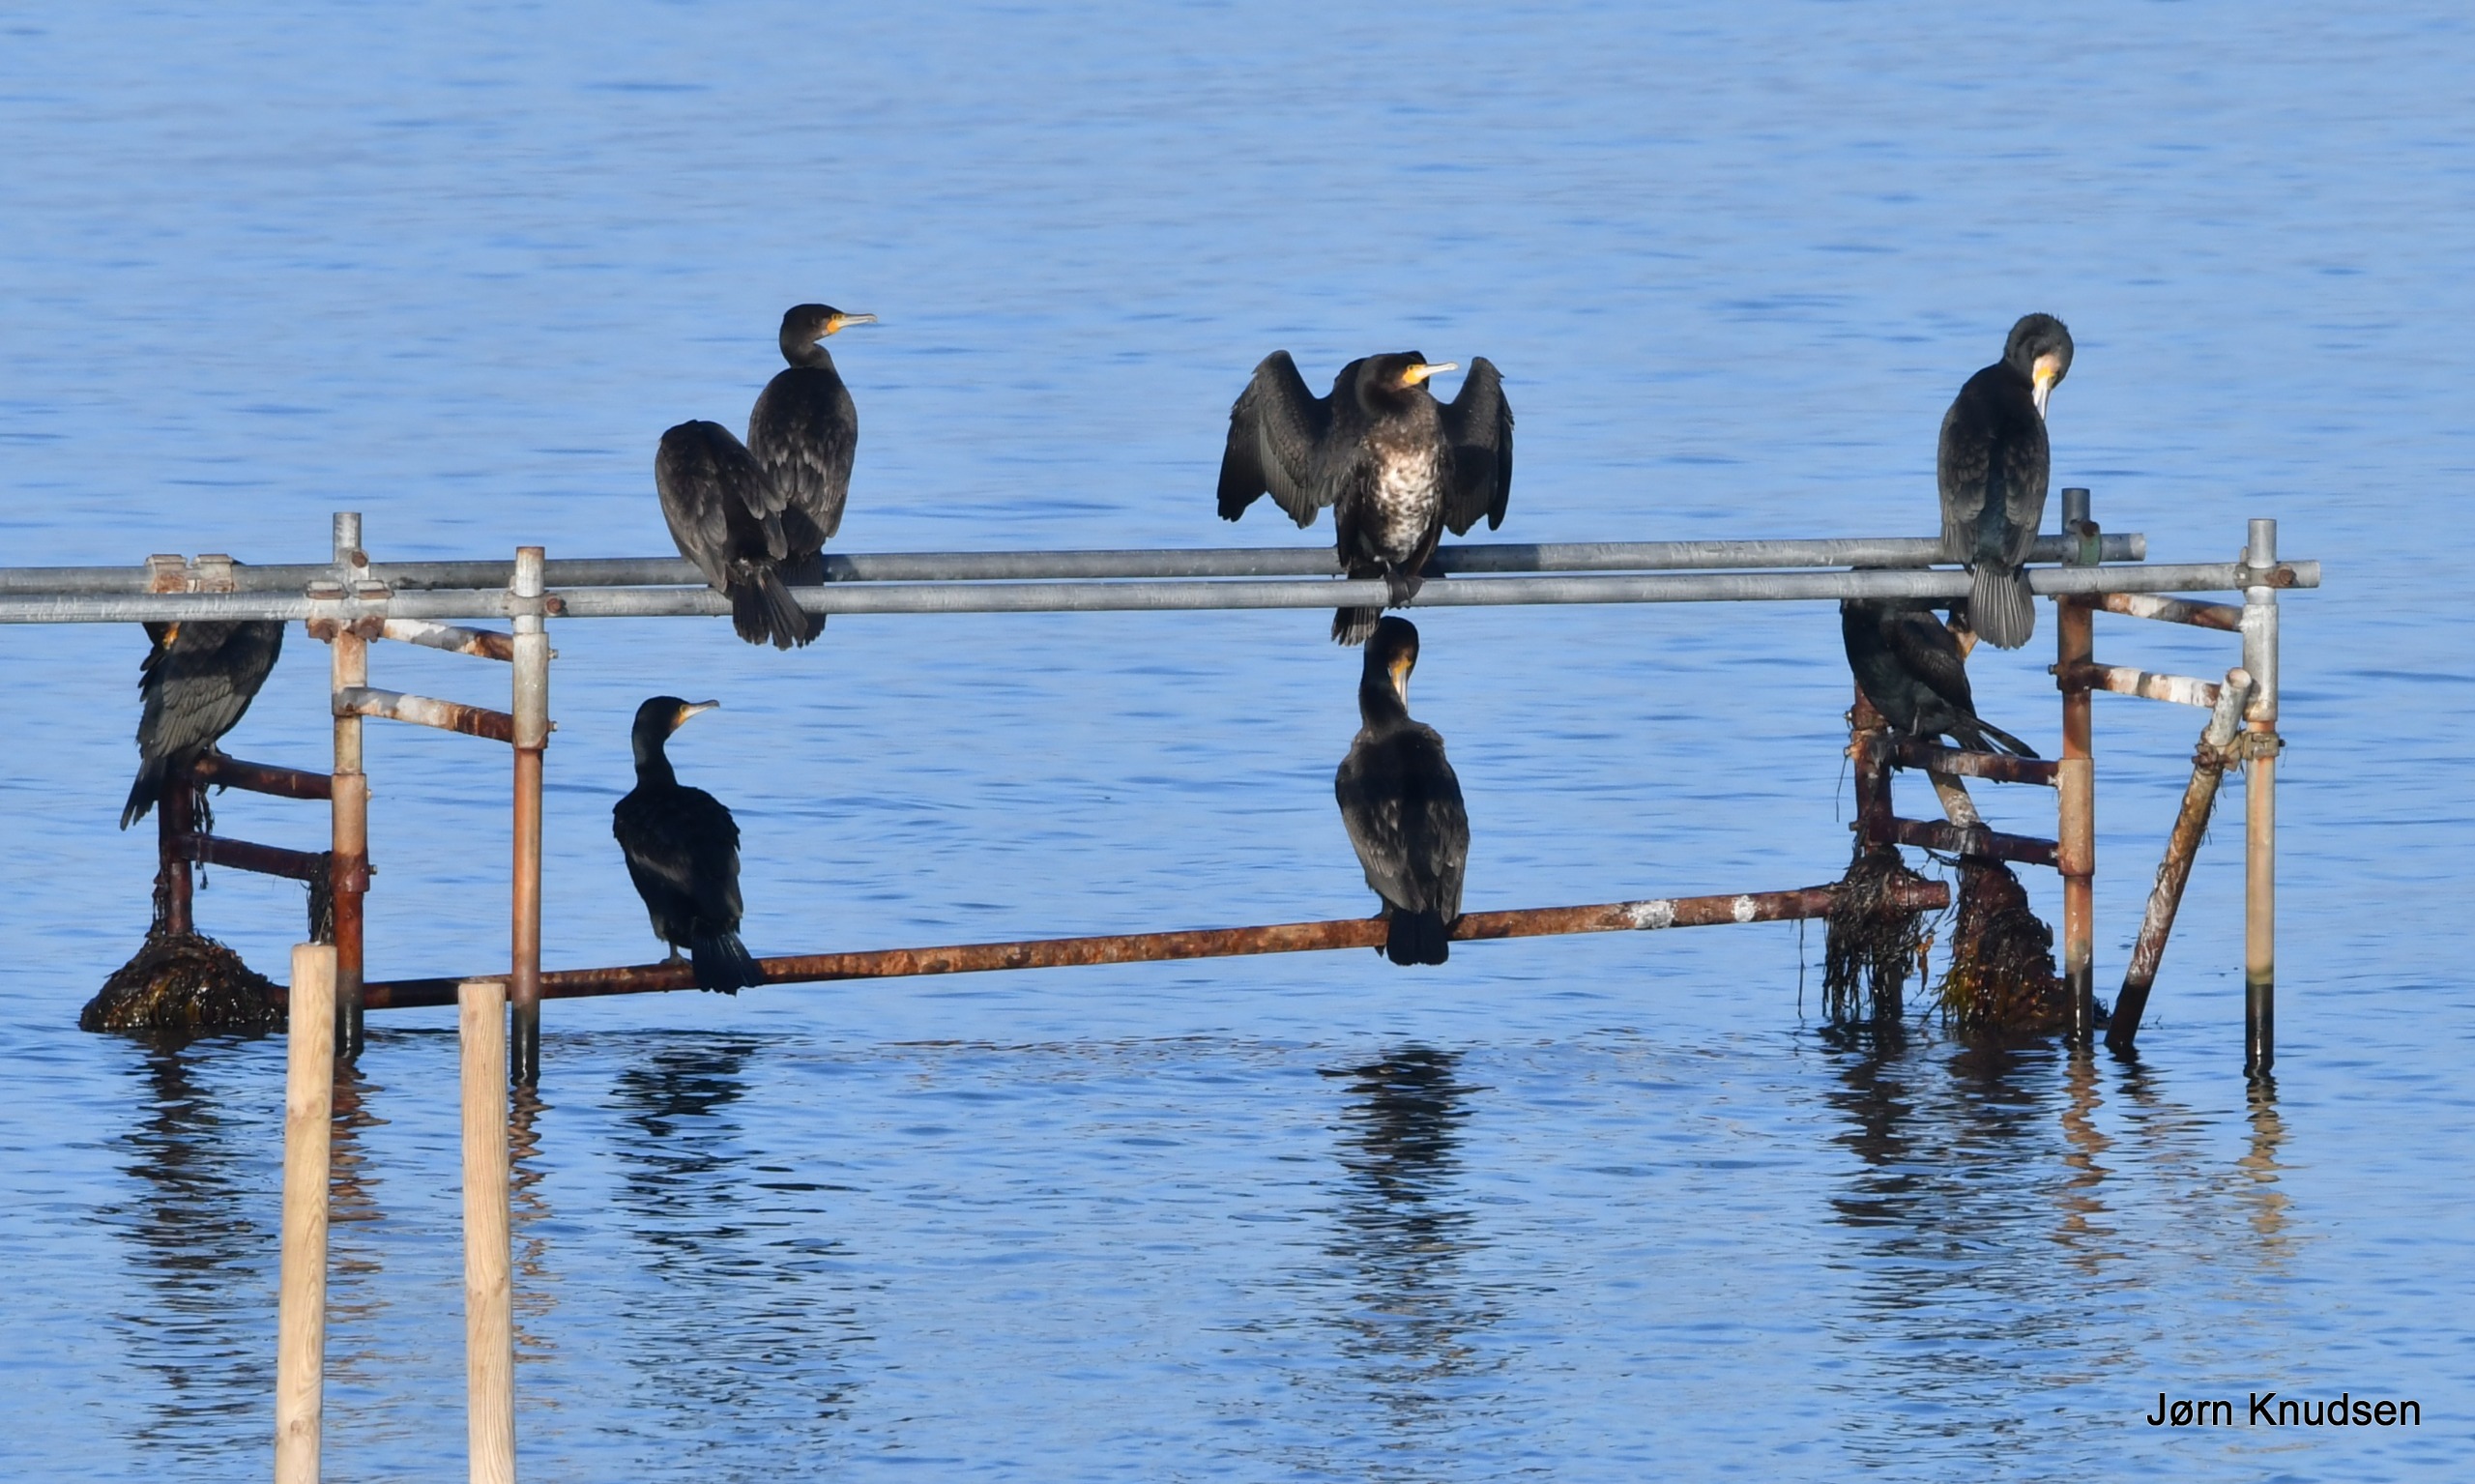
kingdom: Animalia
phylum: Chordata
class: Aves
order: Suliformes
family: Phalacrocoracidae
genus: Phalacrocorax
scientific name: Phalacrocorax carbo
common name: Skarv
